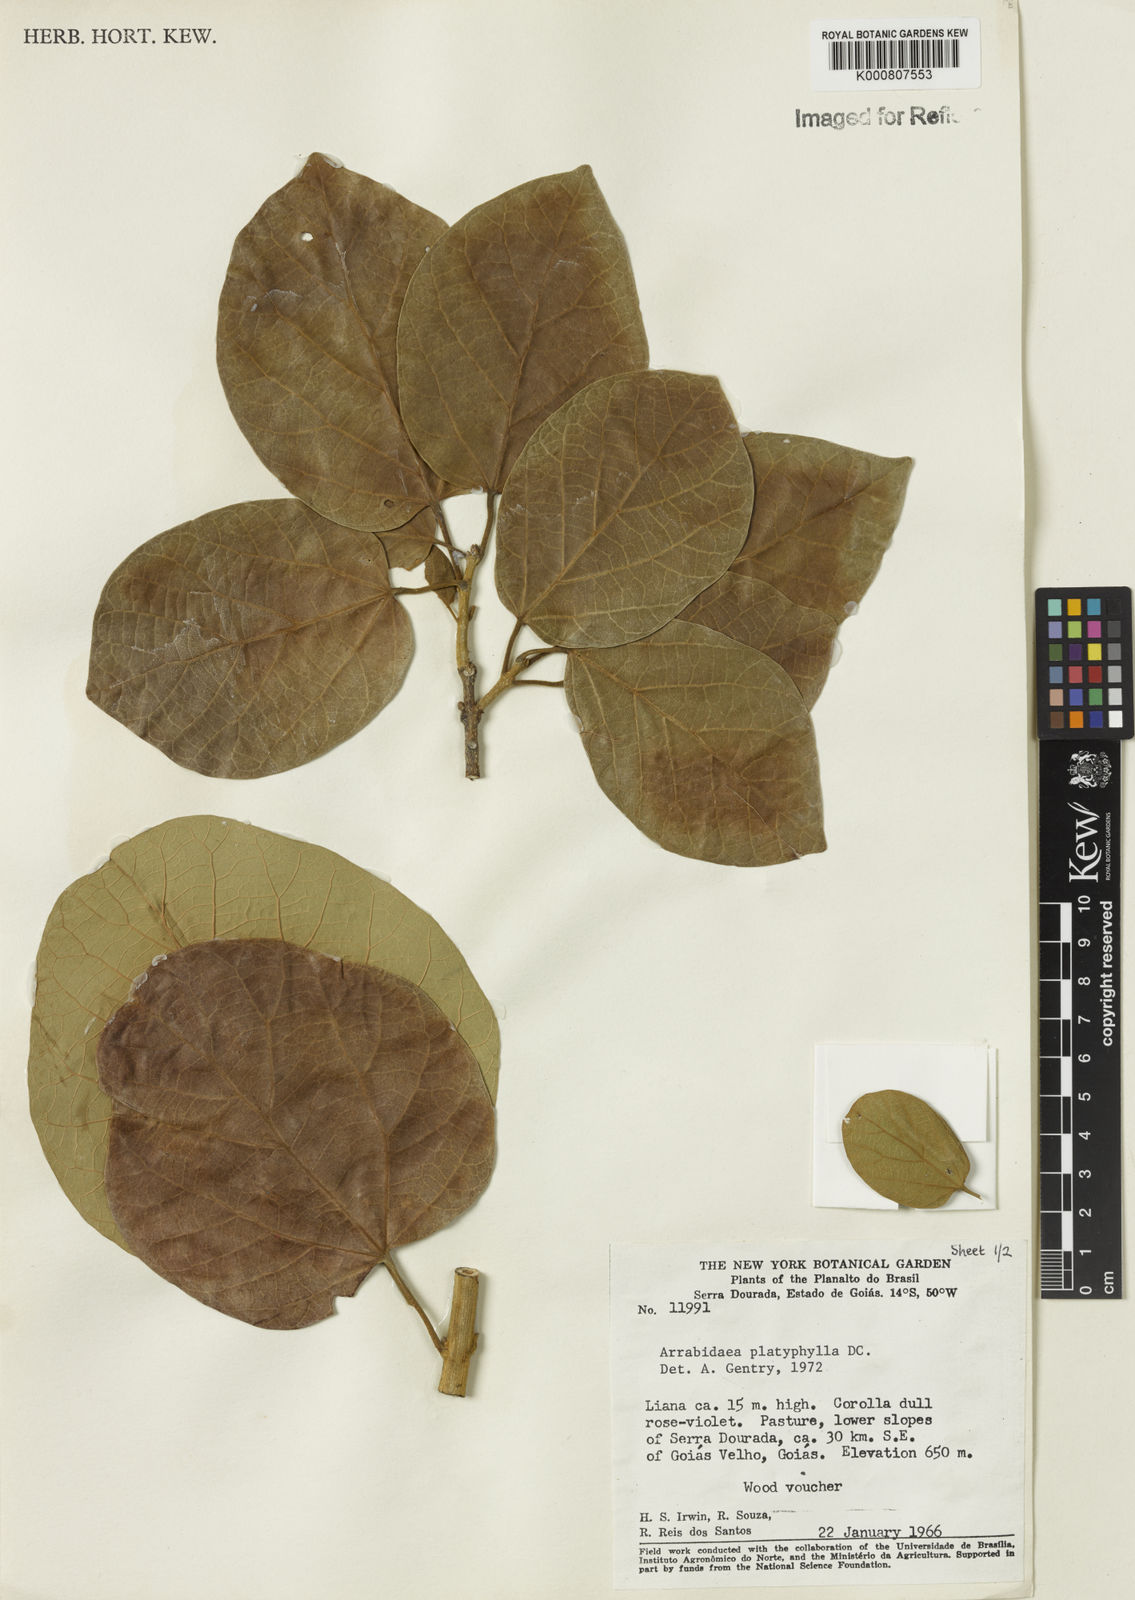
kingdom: Plantae
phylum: Tracheophyta
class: Magnoliopsida
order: Lamiales
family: Bignoniaceae
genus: Xylophragma
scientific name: Xylophragma platyphyllum
